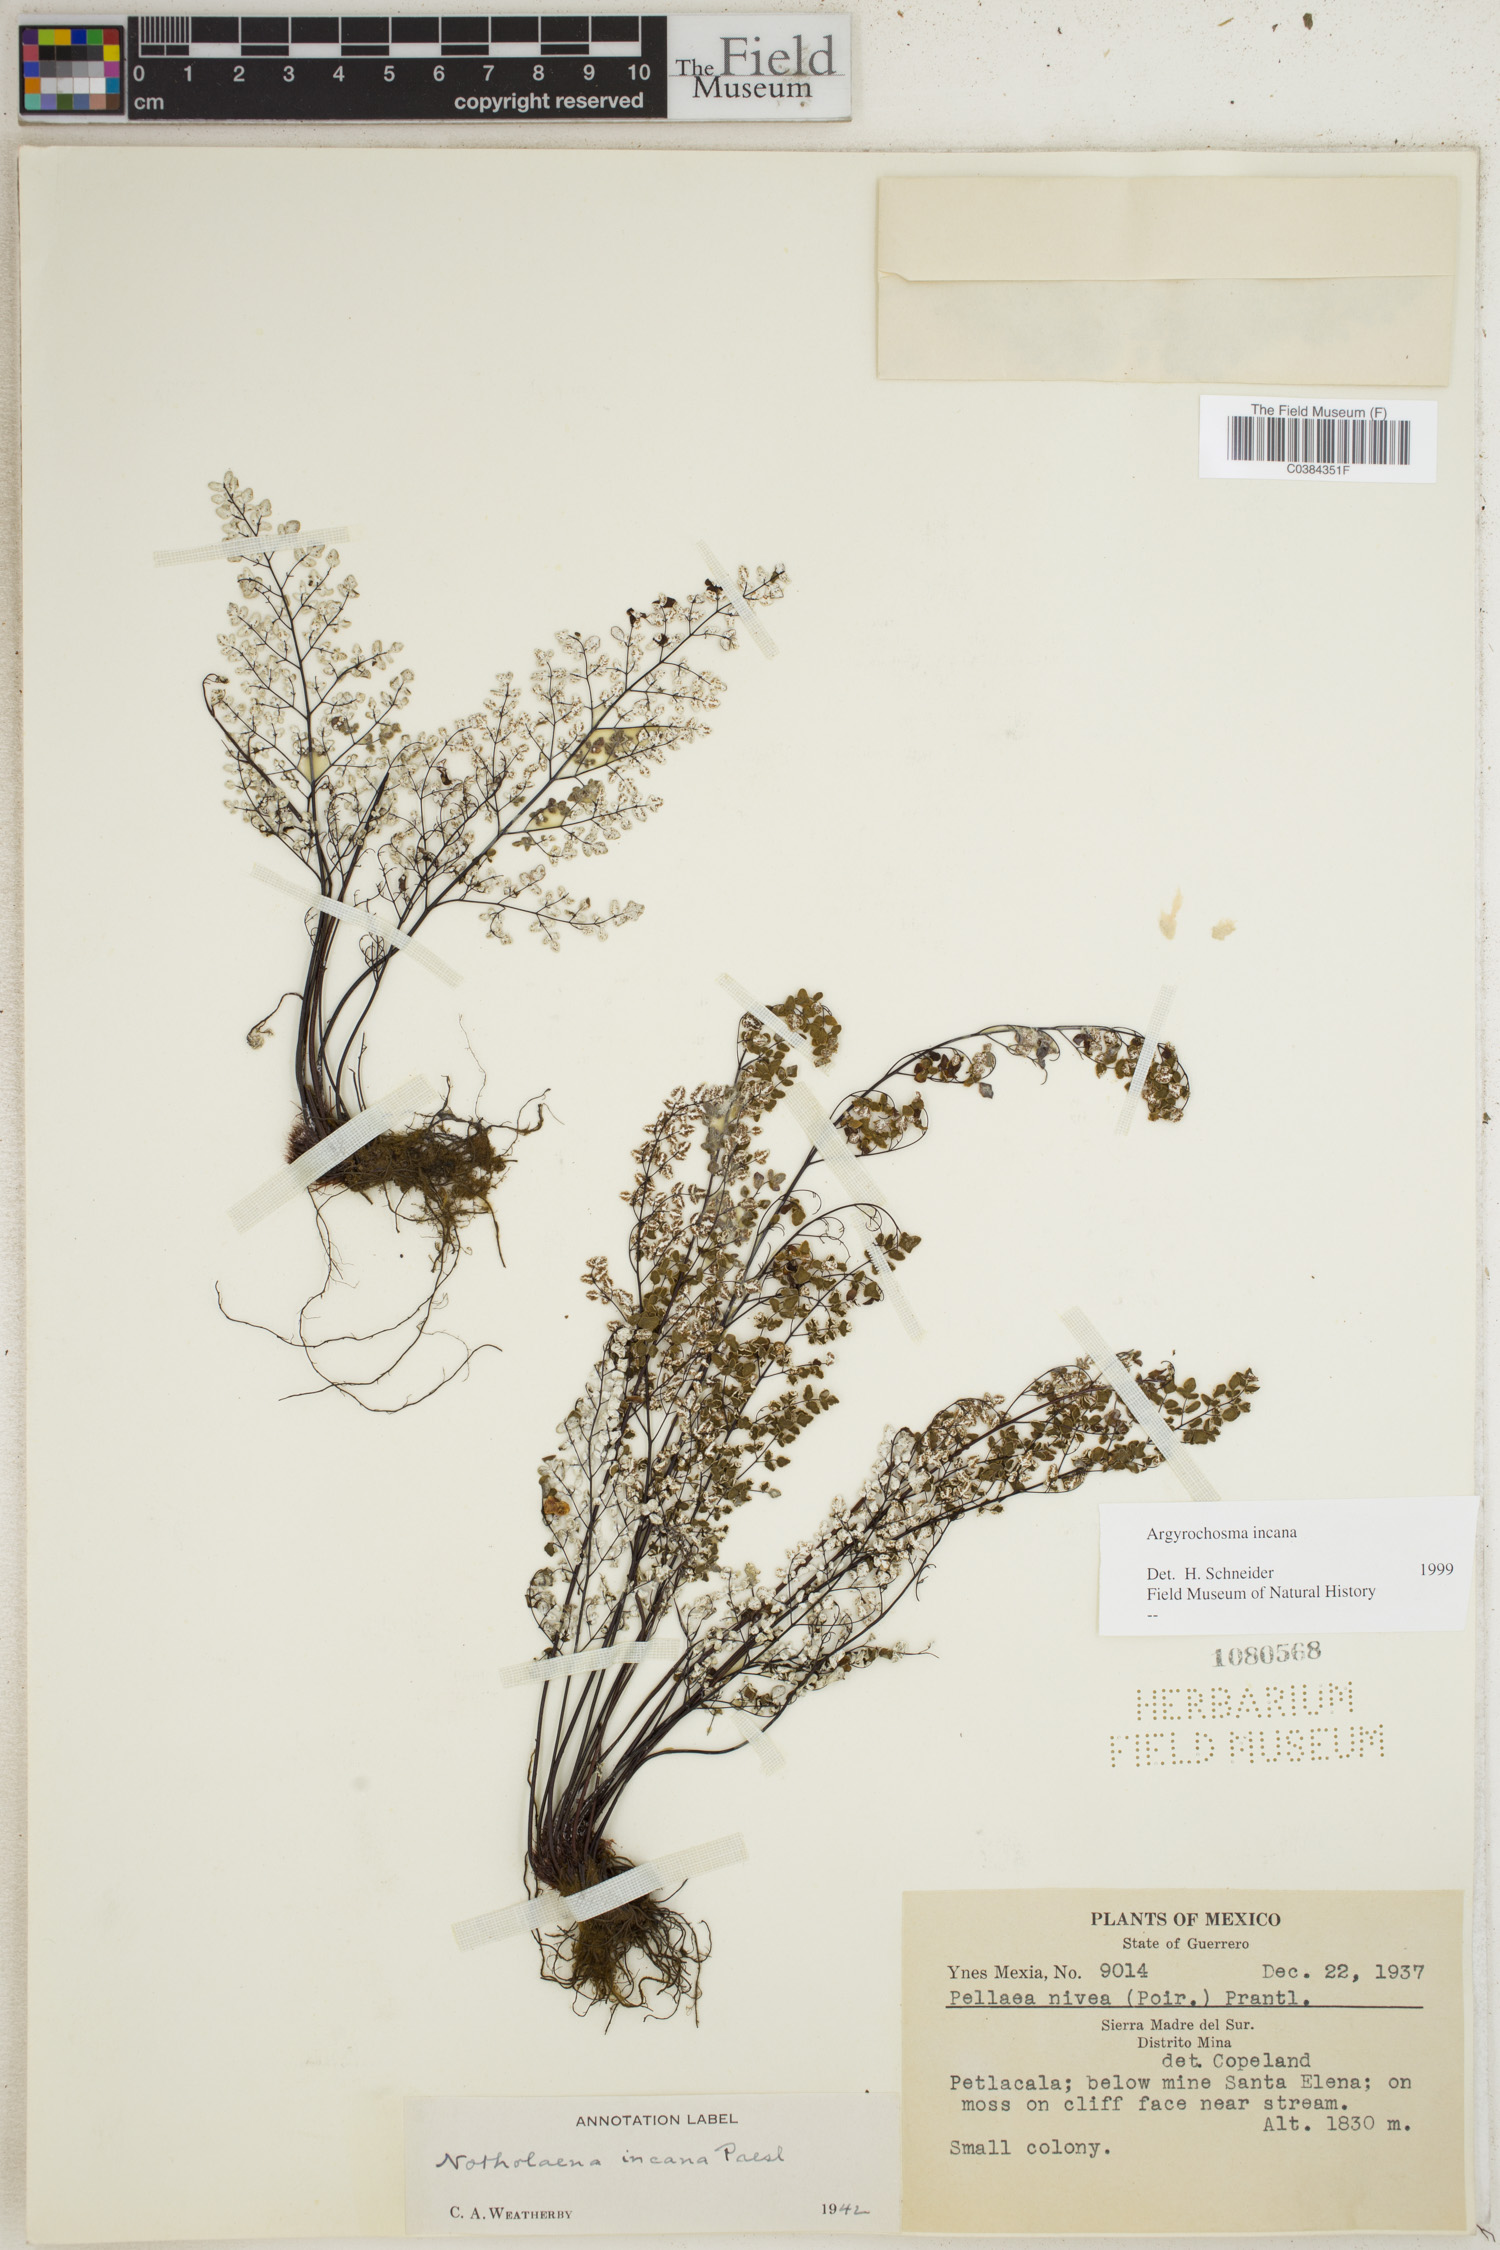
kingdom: Plantae
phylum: Tracheophyta
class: Polypodiopsida
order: Polypodiales
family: Pteridaceae
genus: Argyrochosma
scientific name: Argyrochosma incana
